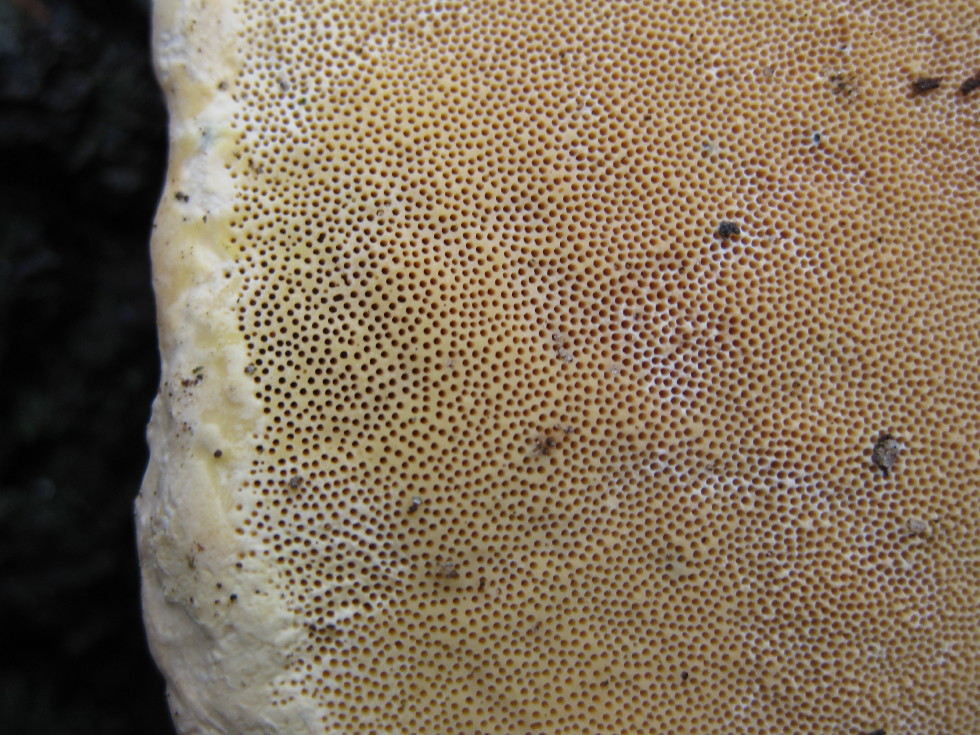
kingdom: Fungi
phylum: Basidiomycota
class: Agaricomycetes
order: Polyporales
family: Fomitopsidaceae
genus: Fomitopsis
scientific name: Fomitopsis pinicola
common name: randbæltet hovporesvamp
